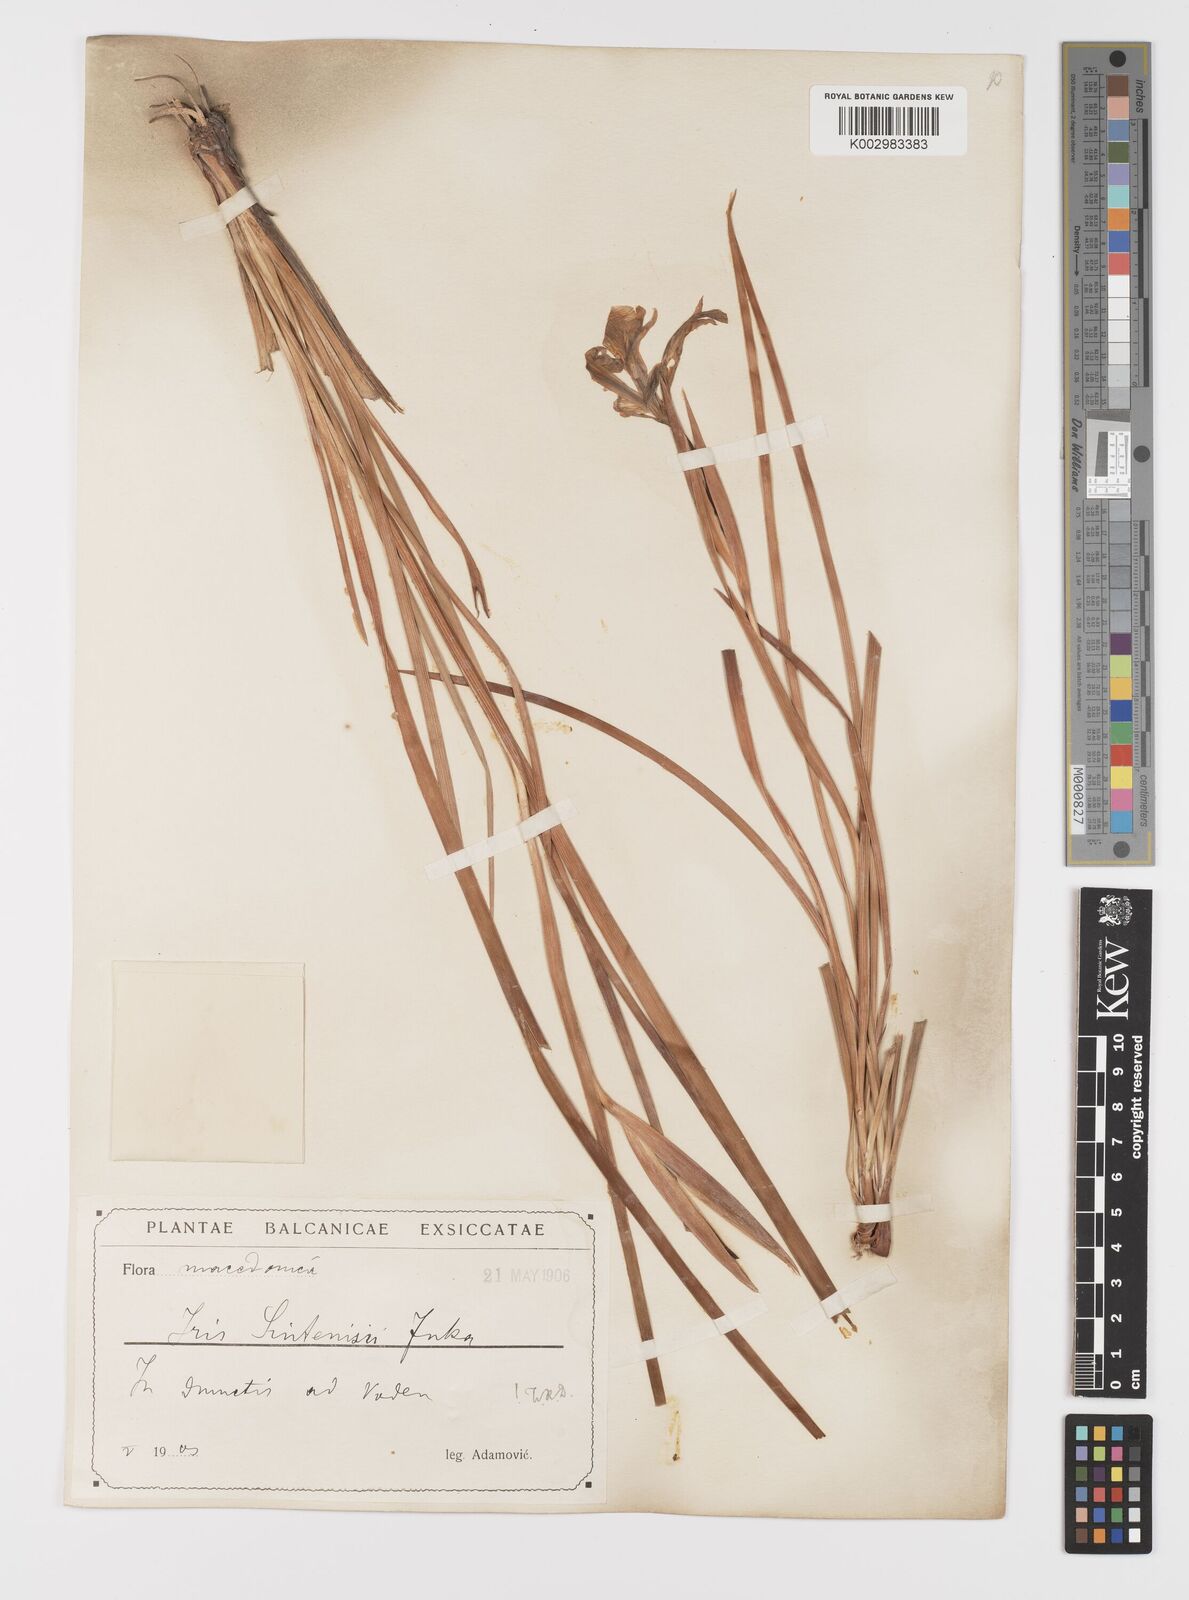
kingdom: Plantae
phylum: Tracheophyta
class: Liliopsida
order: Asparagales
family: Iridaceae
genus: Iris
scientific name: Iris sintenisii
